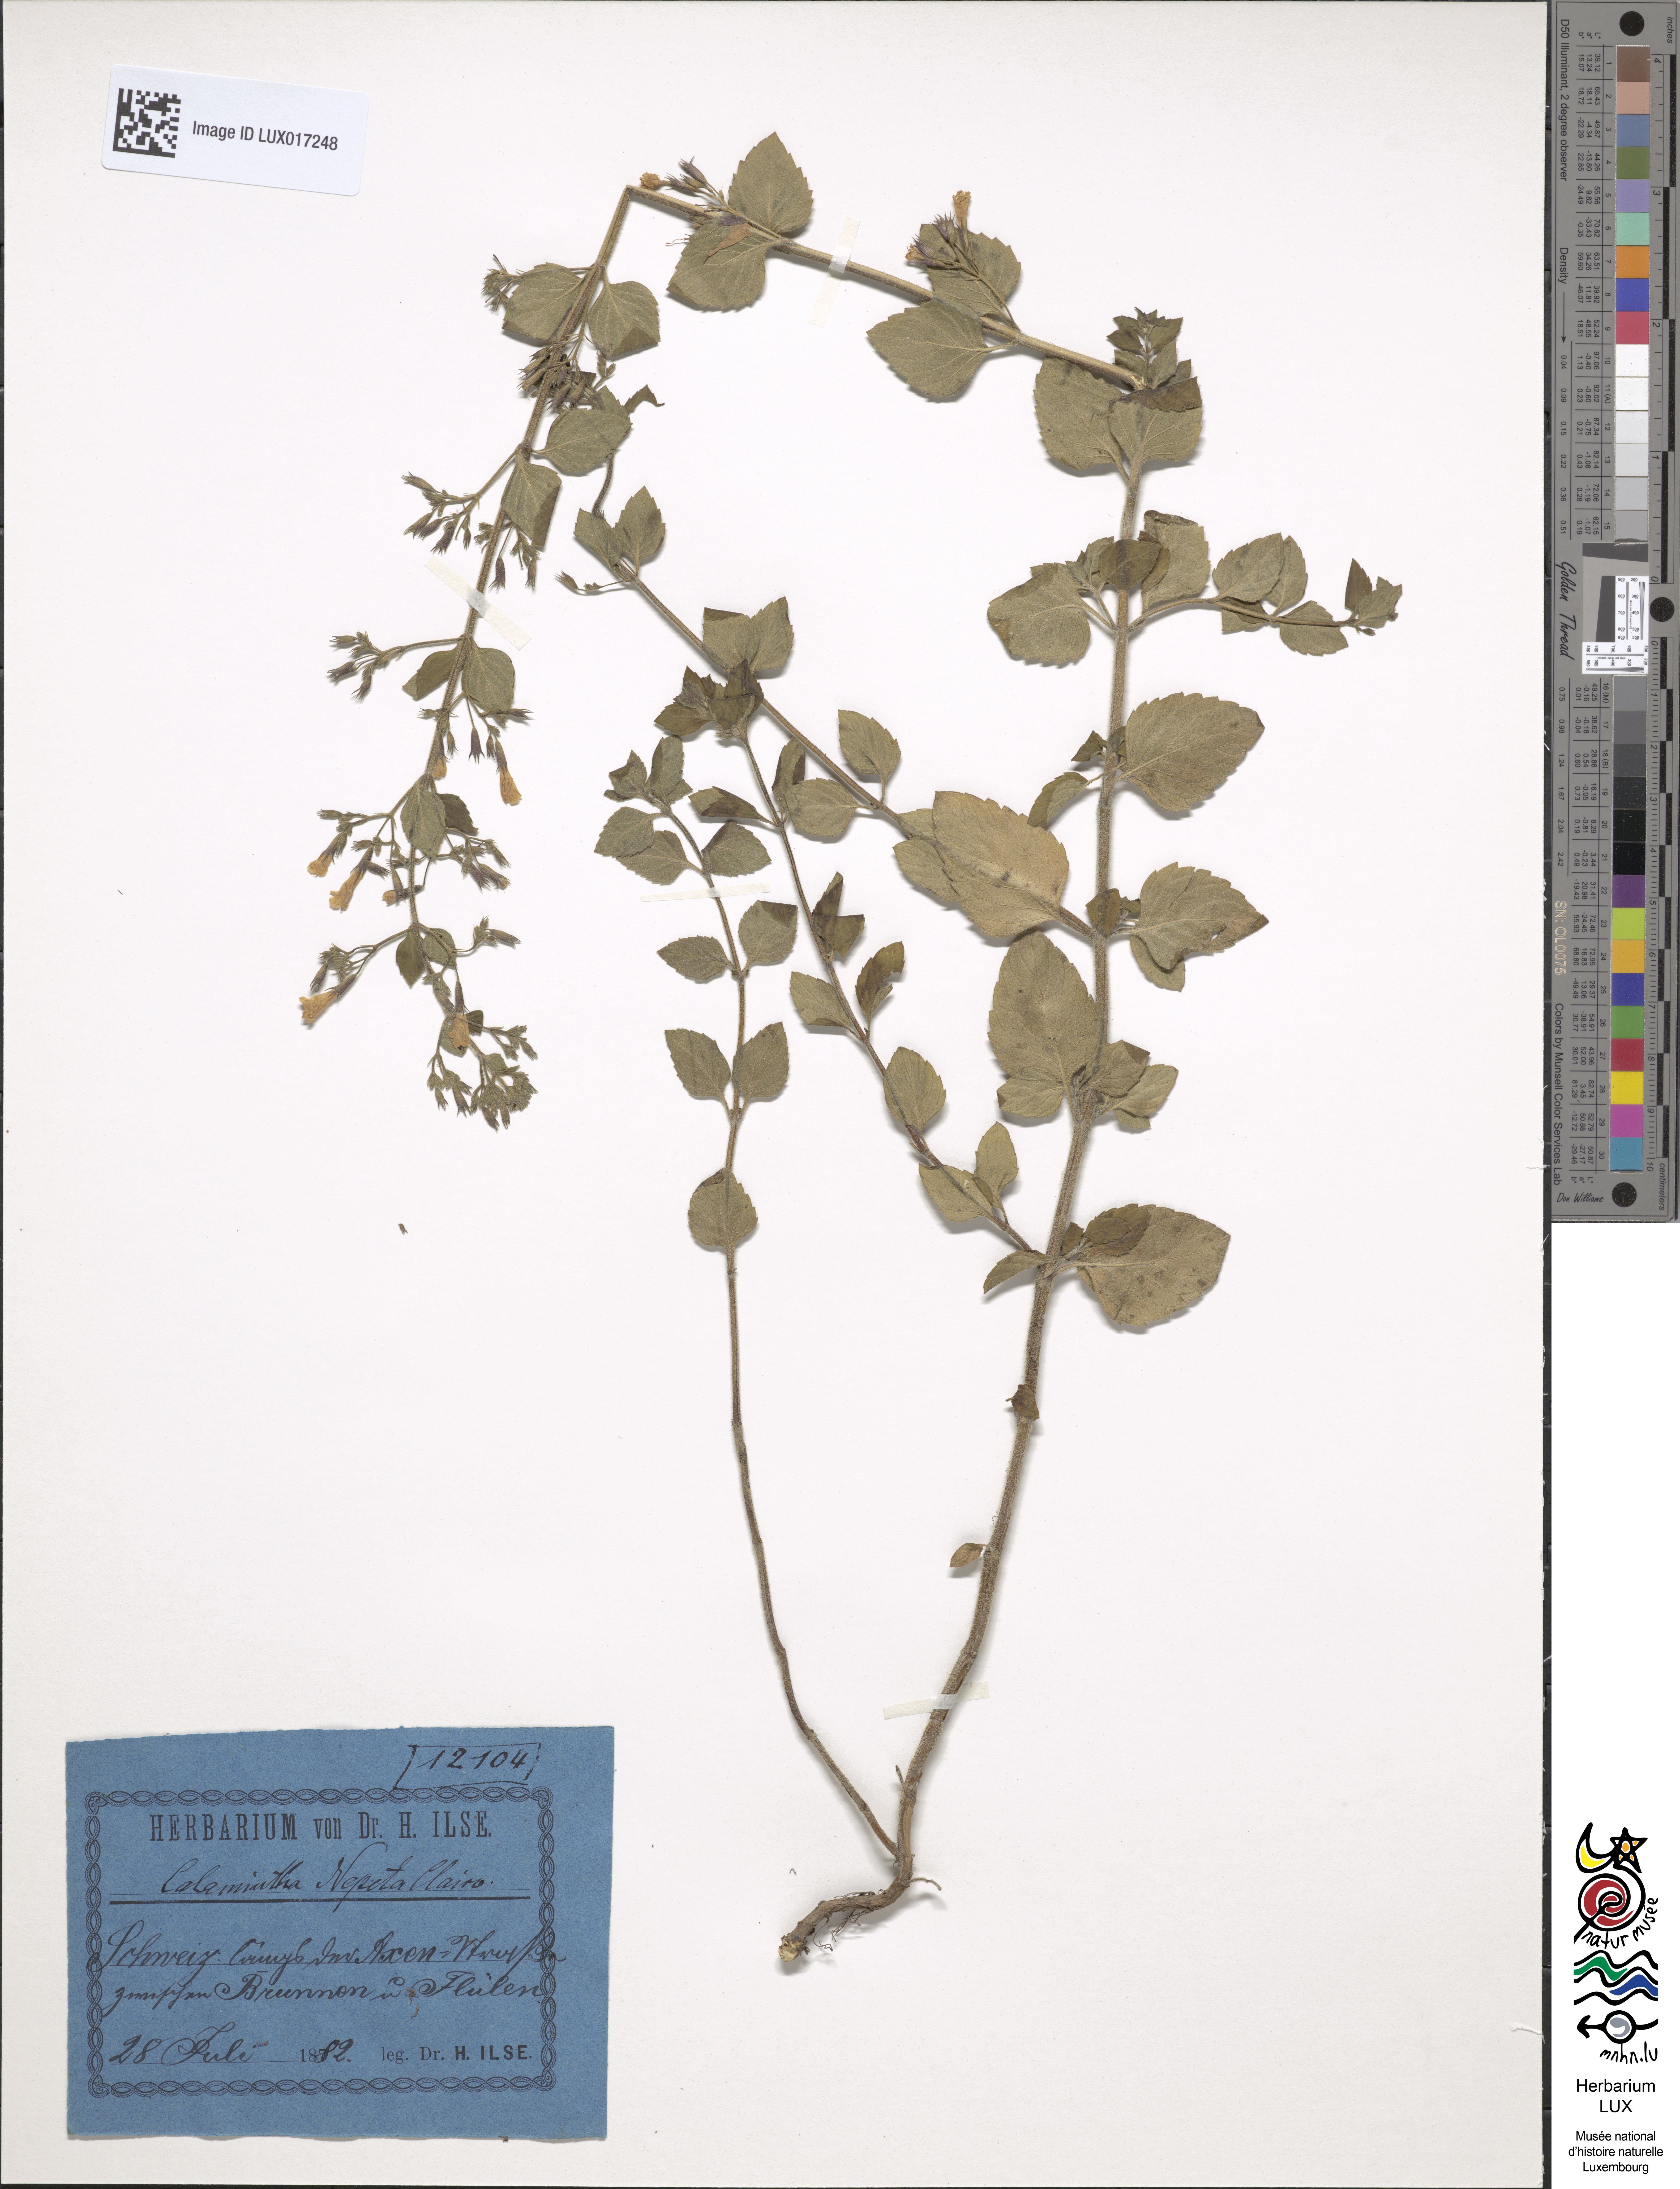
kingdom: Plantae
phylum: Tracheophyta
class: Magnoliopsida
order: Lamiales
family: Lamiaceae
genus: Clinopodium
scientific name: Clinopodium nepeta
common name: Lesser calamint
